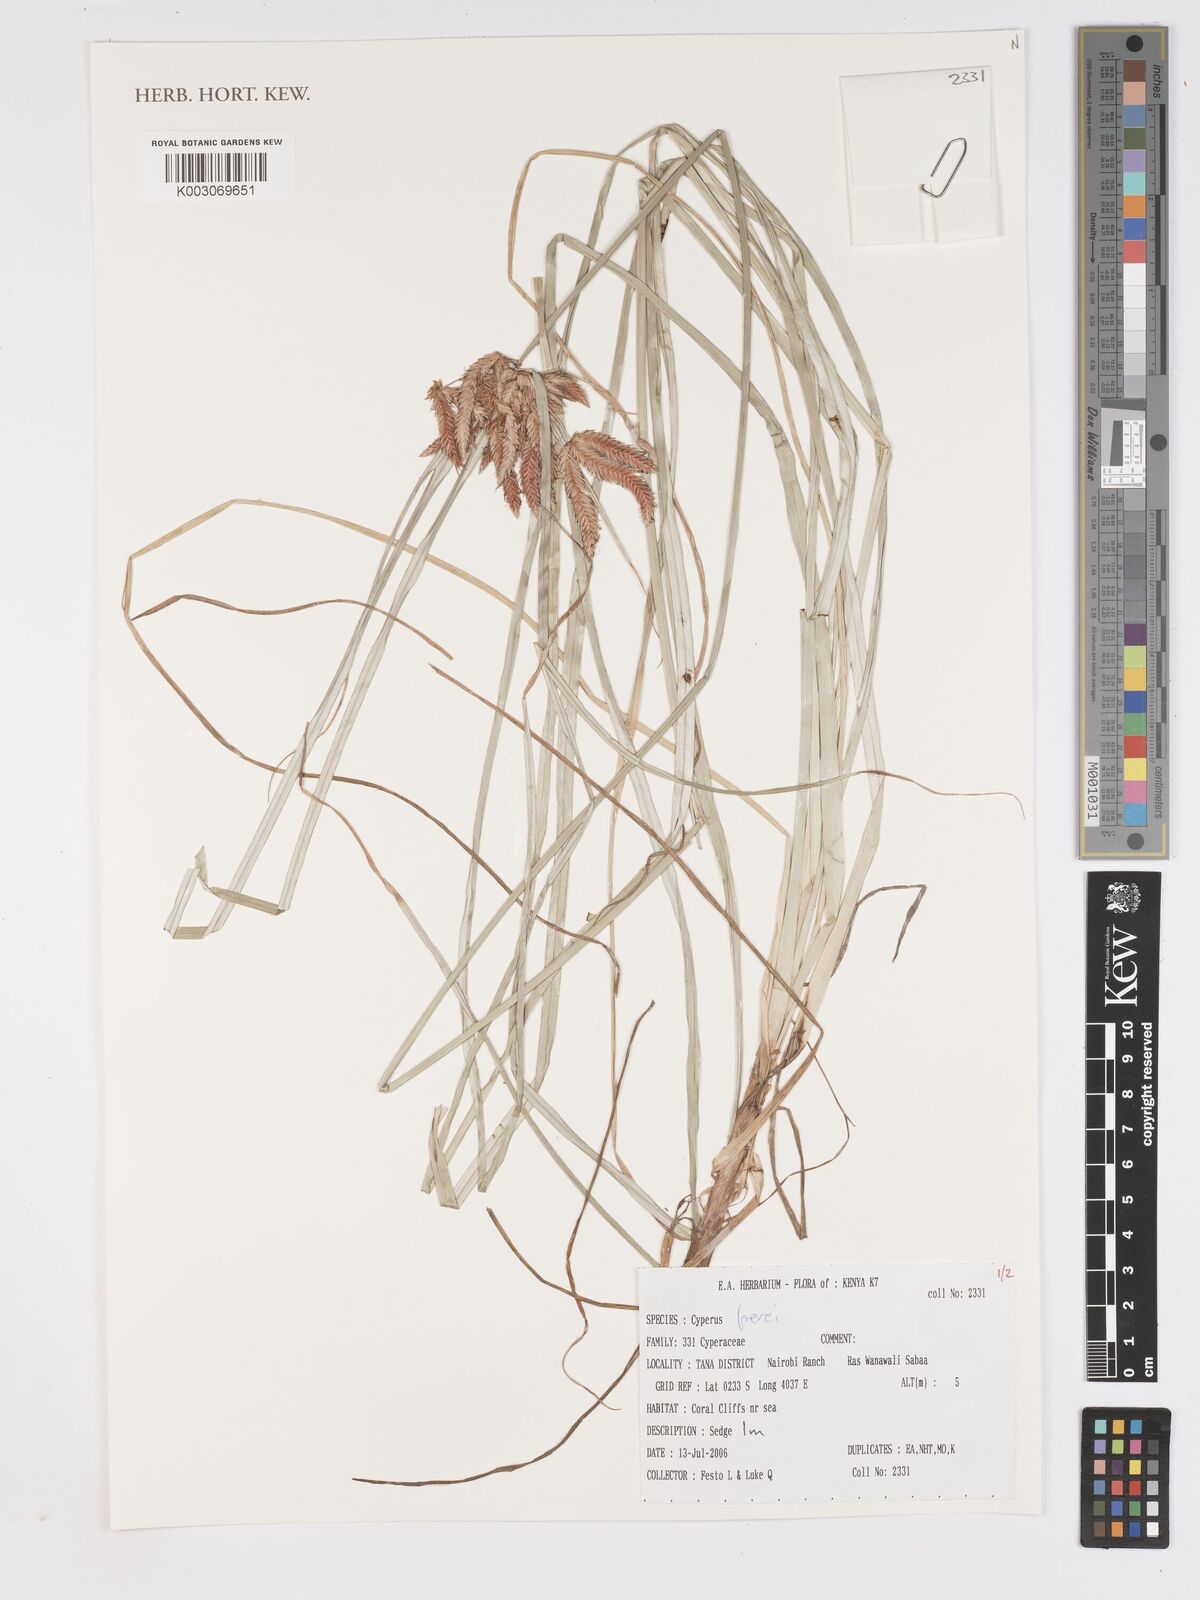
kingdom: Plantae
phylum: Tracheophyta
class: Liliopsida
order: Poales
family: Cyperaceae
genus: Cyperus
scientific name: Cyperus crassipes
